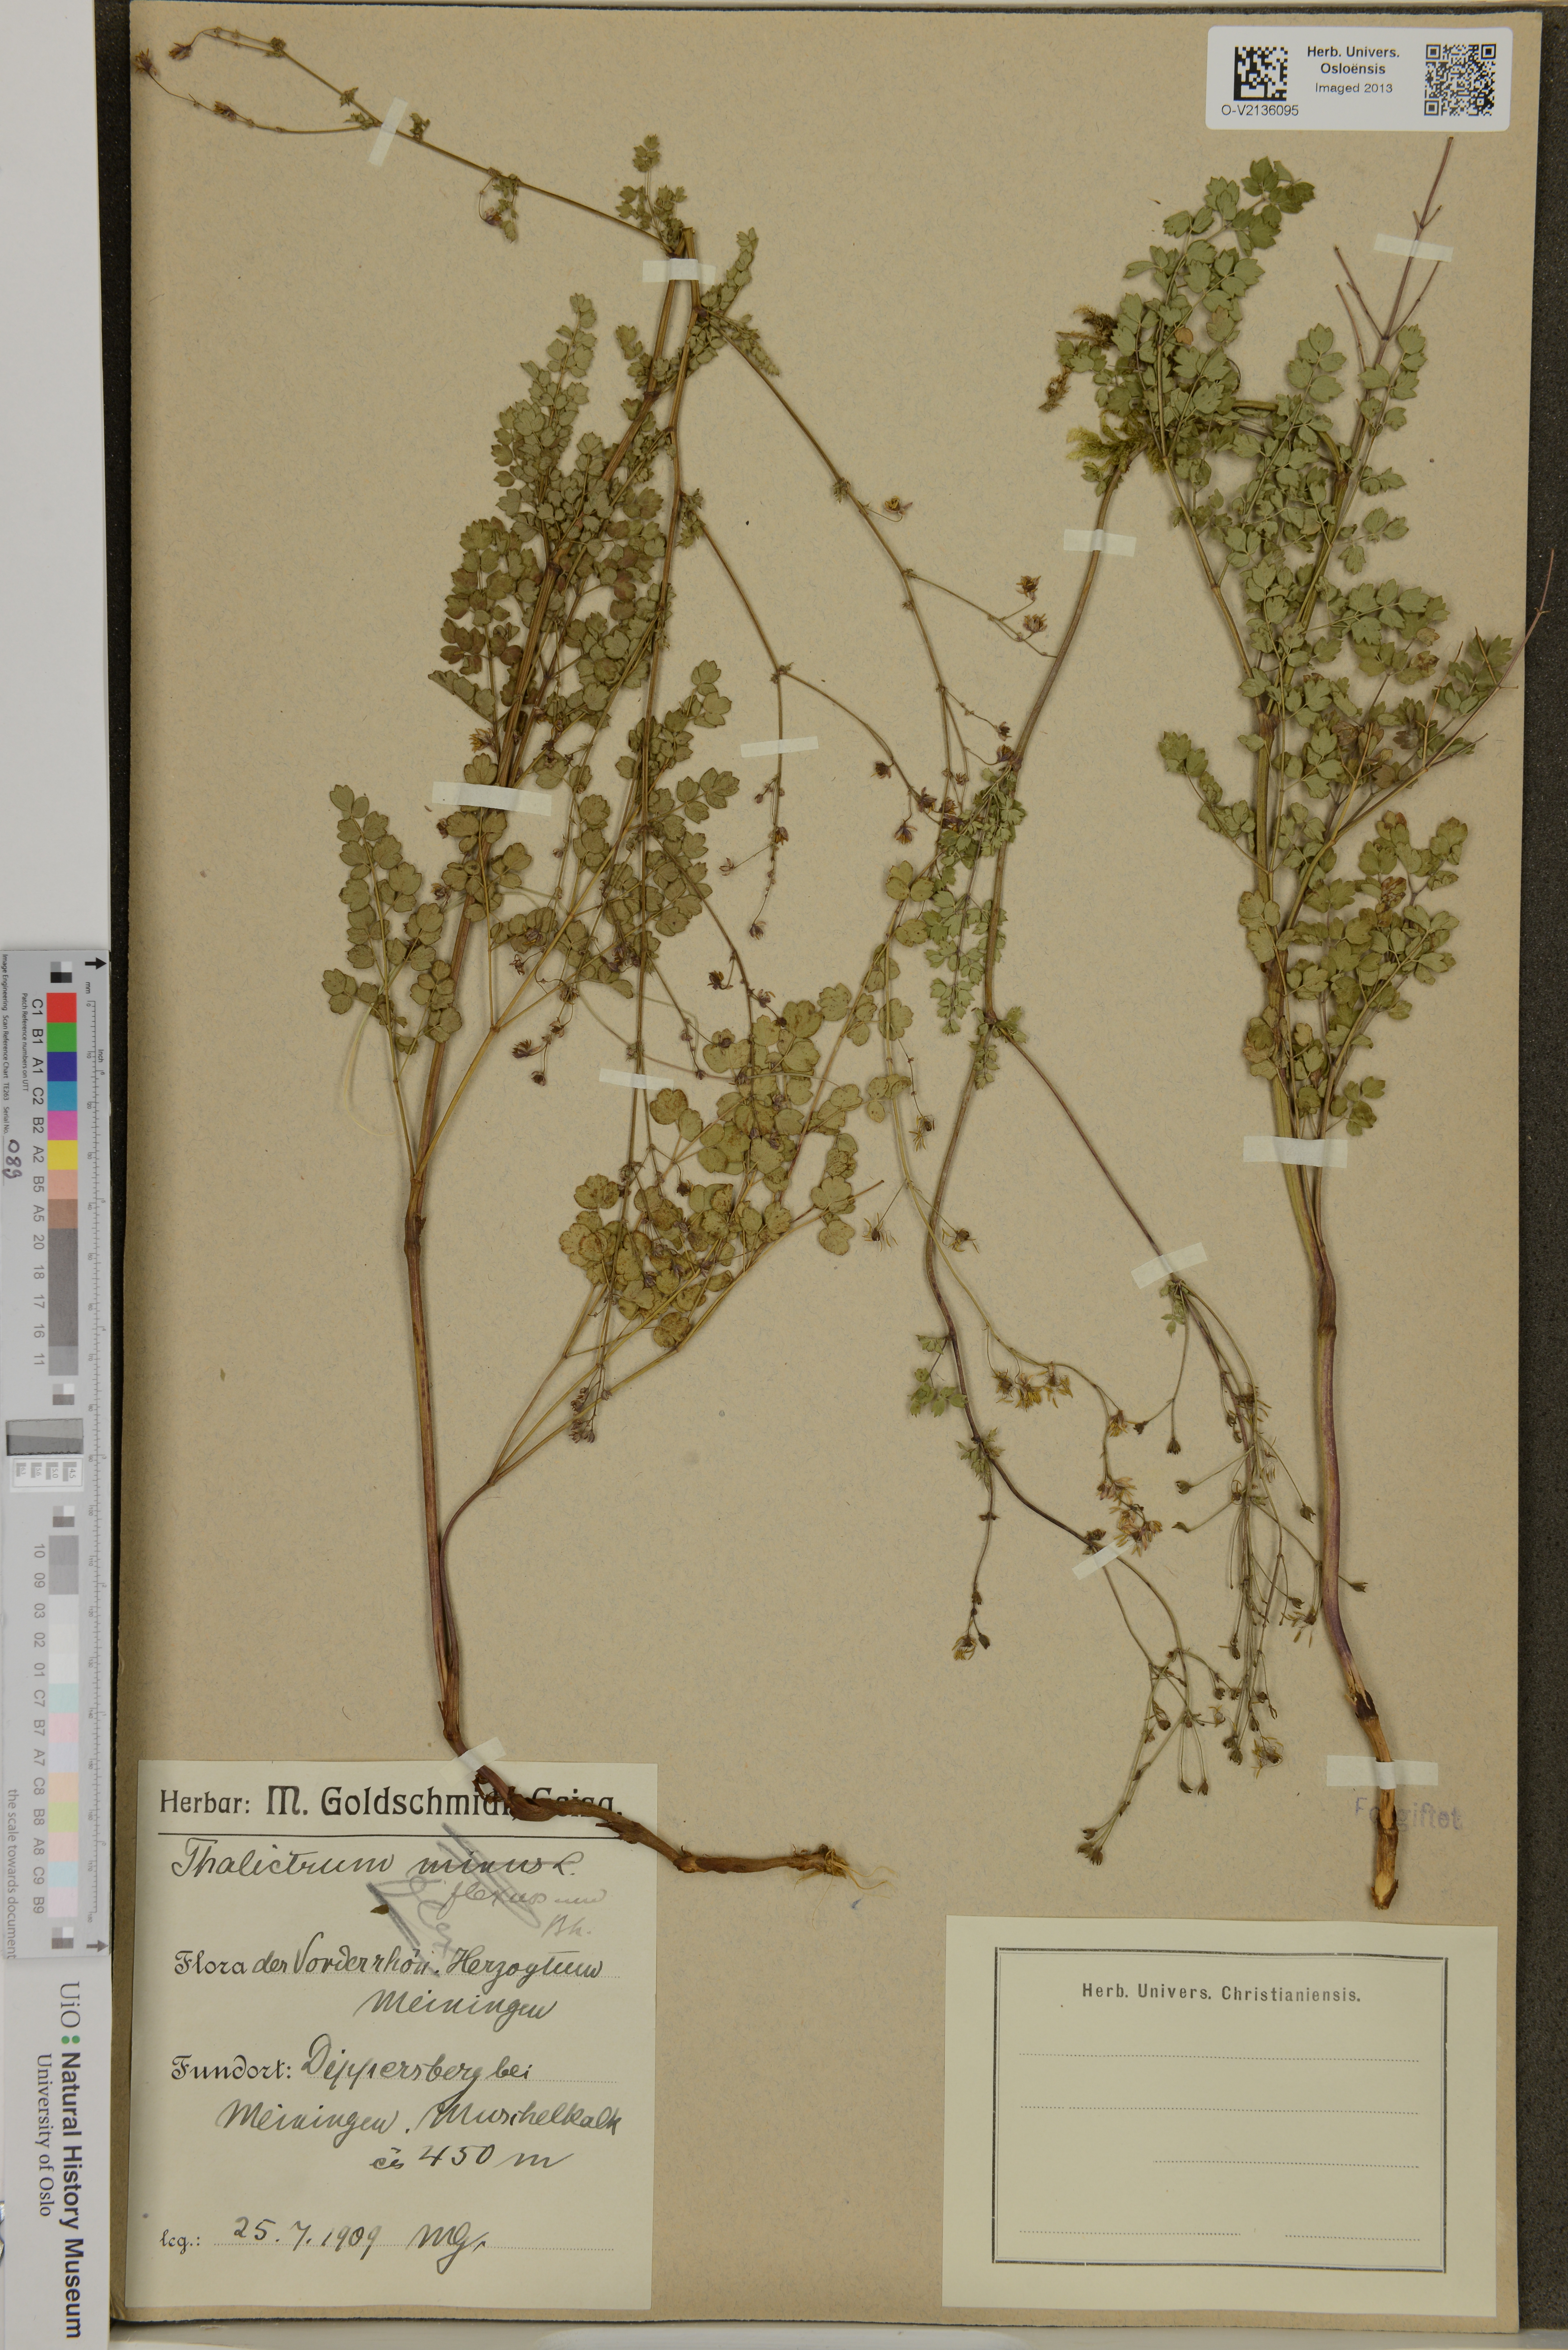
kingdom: Plantae
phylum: Tracheophyta
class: Magnoliopsida
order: Ranunculales
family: Ranunculaceae
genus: Thalictrum
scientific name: Thalictrum minus
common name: Lesser meadow-rue
